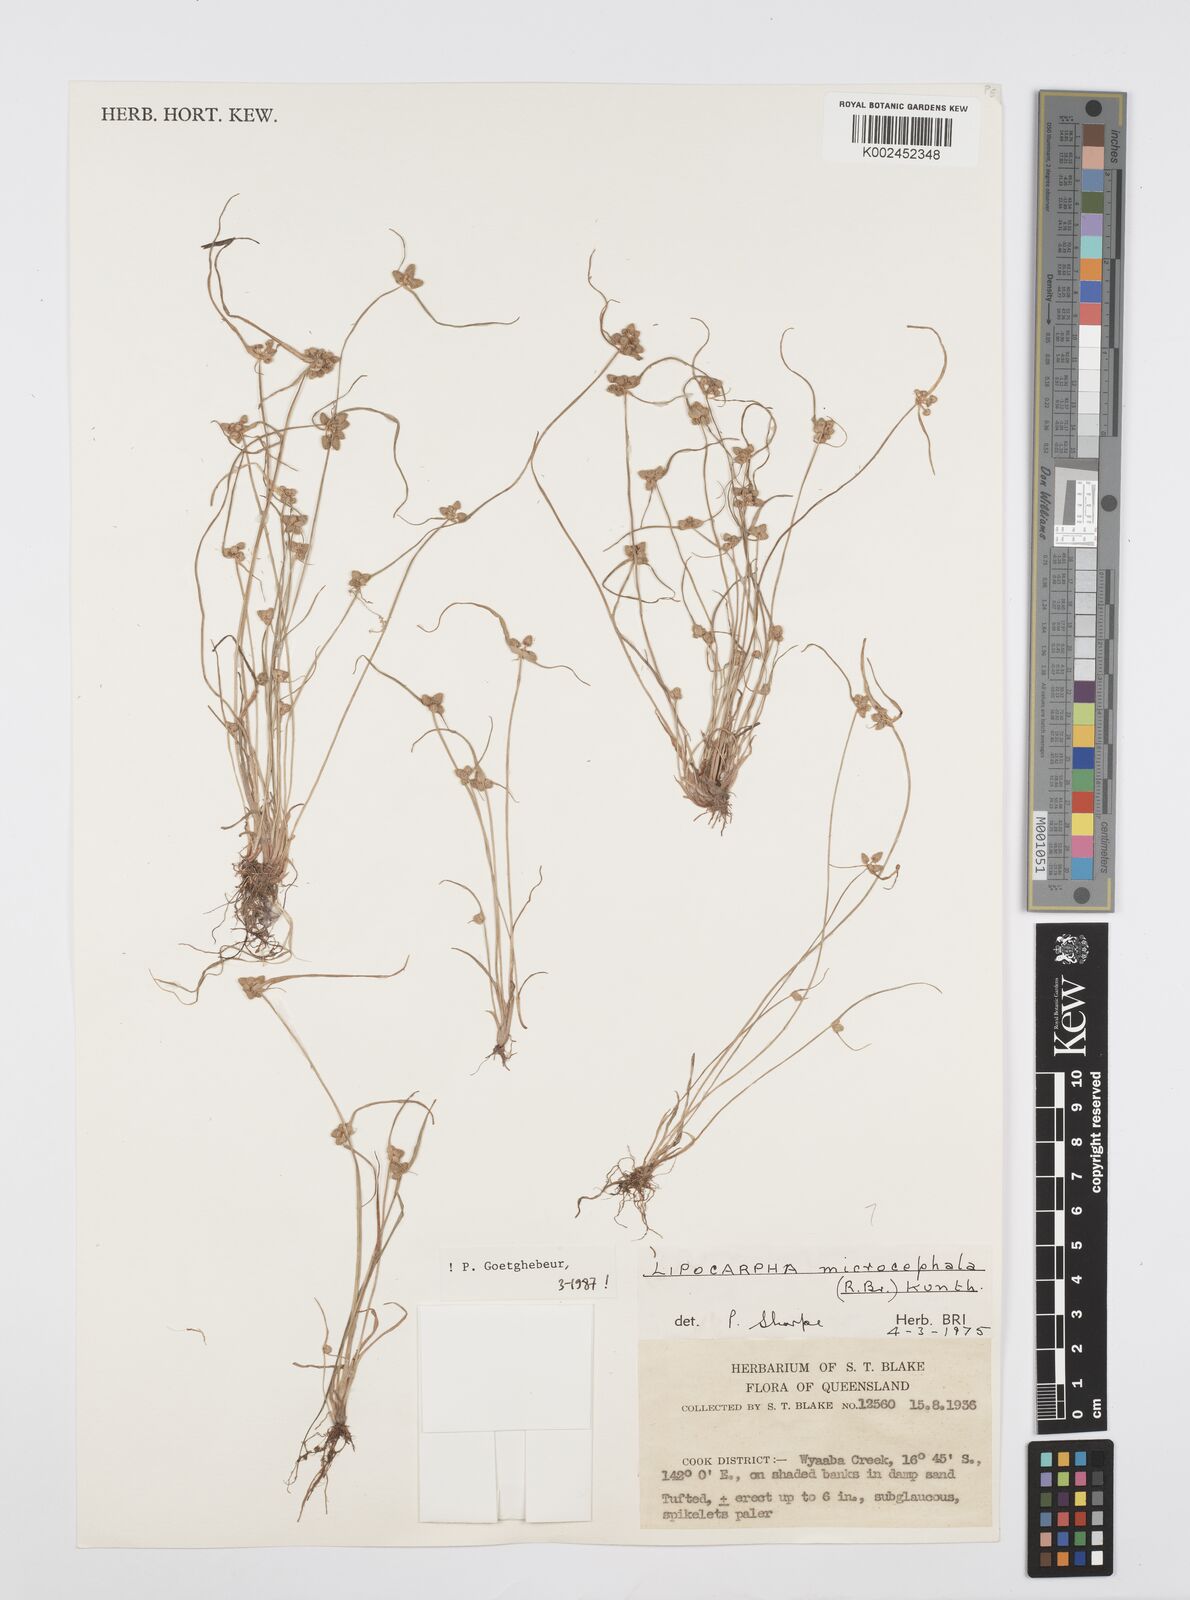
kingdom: Plantae
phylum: Tracheophyta
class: Liliopsida
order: Poales
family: Cyperaceae
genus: Cyperus
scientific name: Cyperus microcephalus
